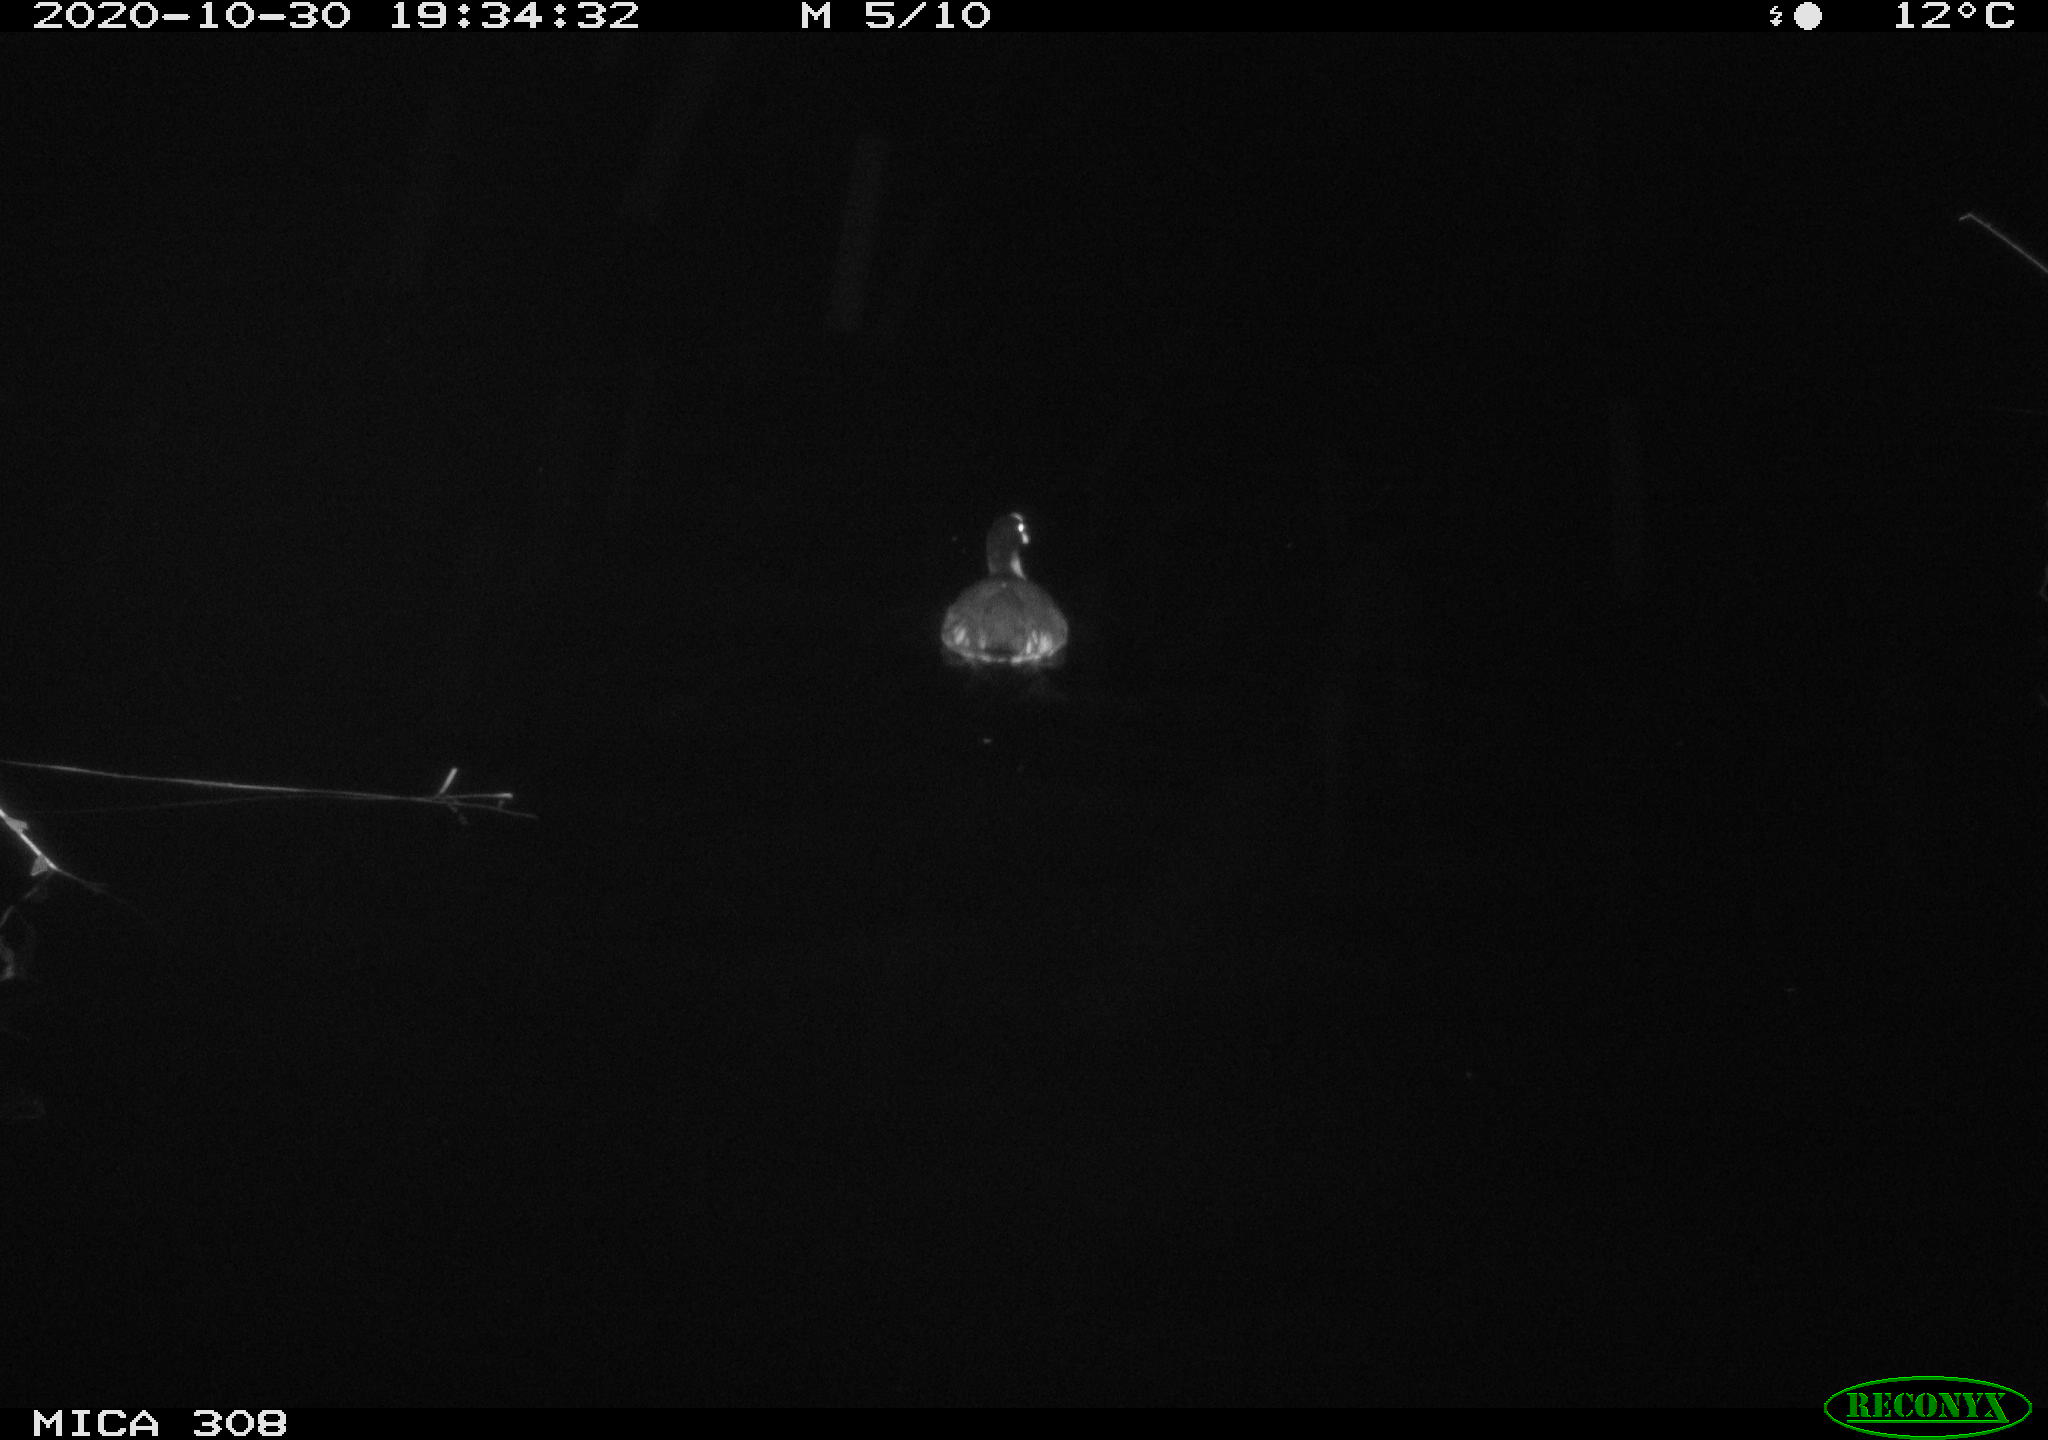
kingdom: Animalia
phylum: Chordata
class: Mammalia
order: Rodentia
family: Muridae
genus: Rattus
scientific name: Rattus norvegicus
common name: Brown rat
